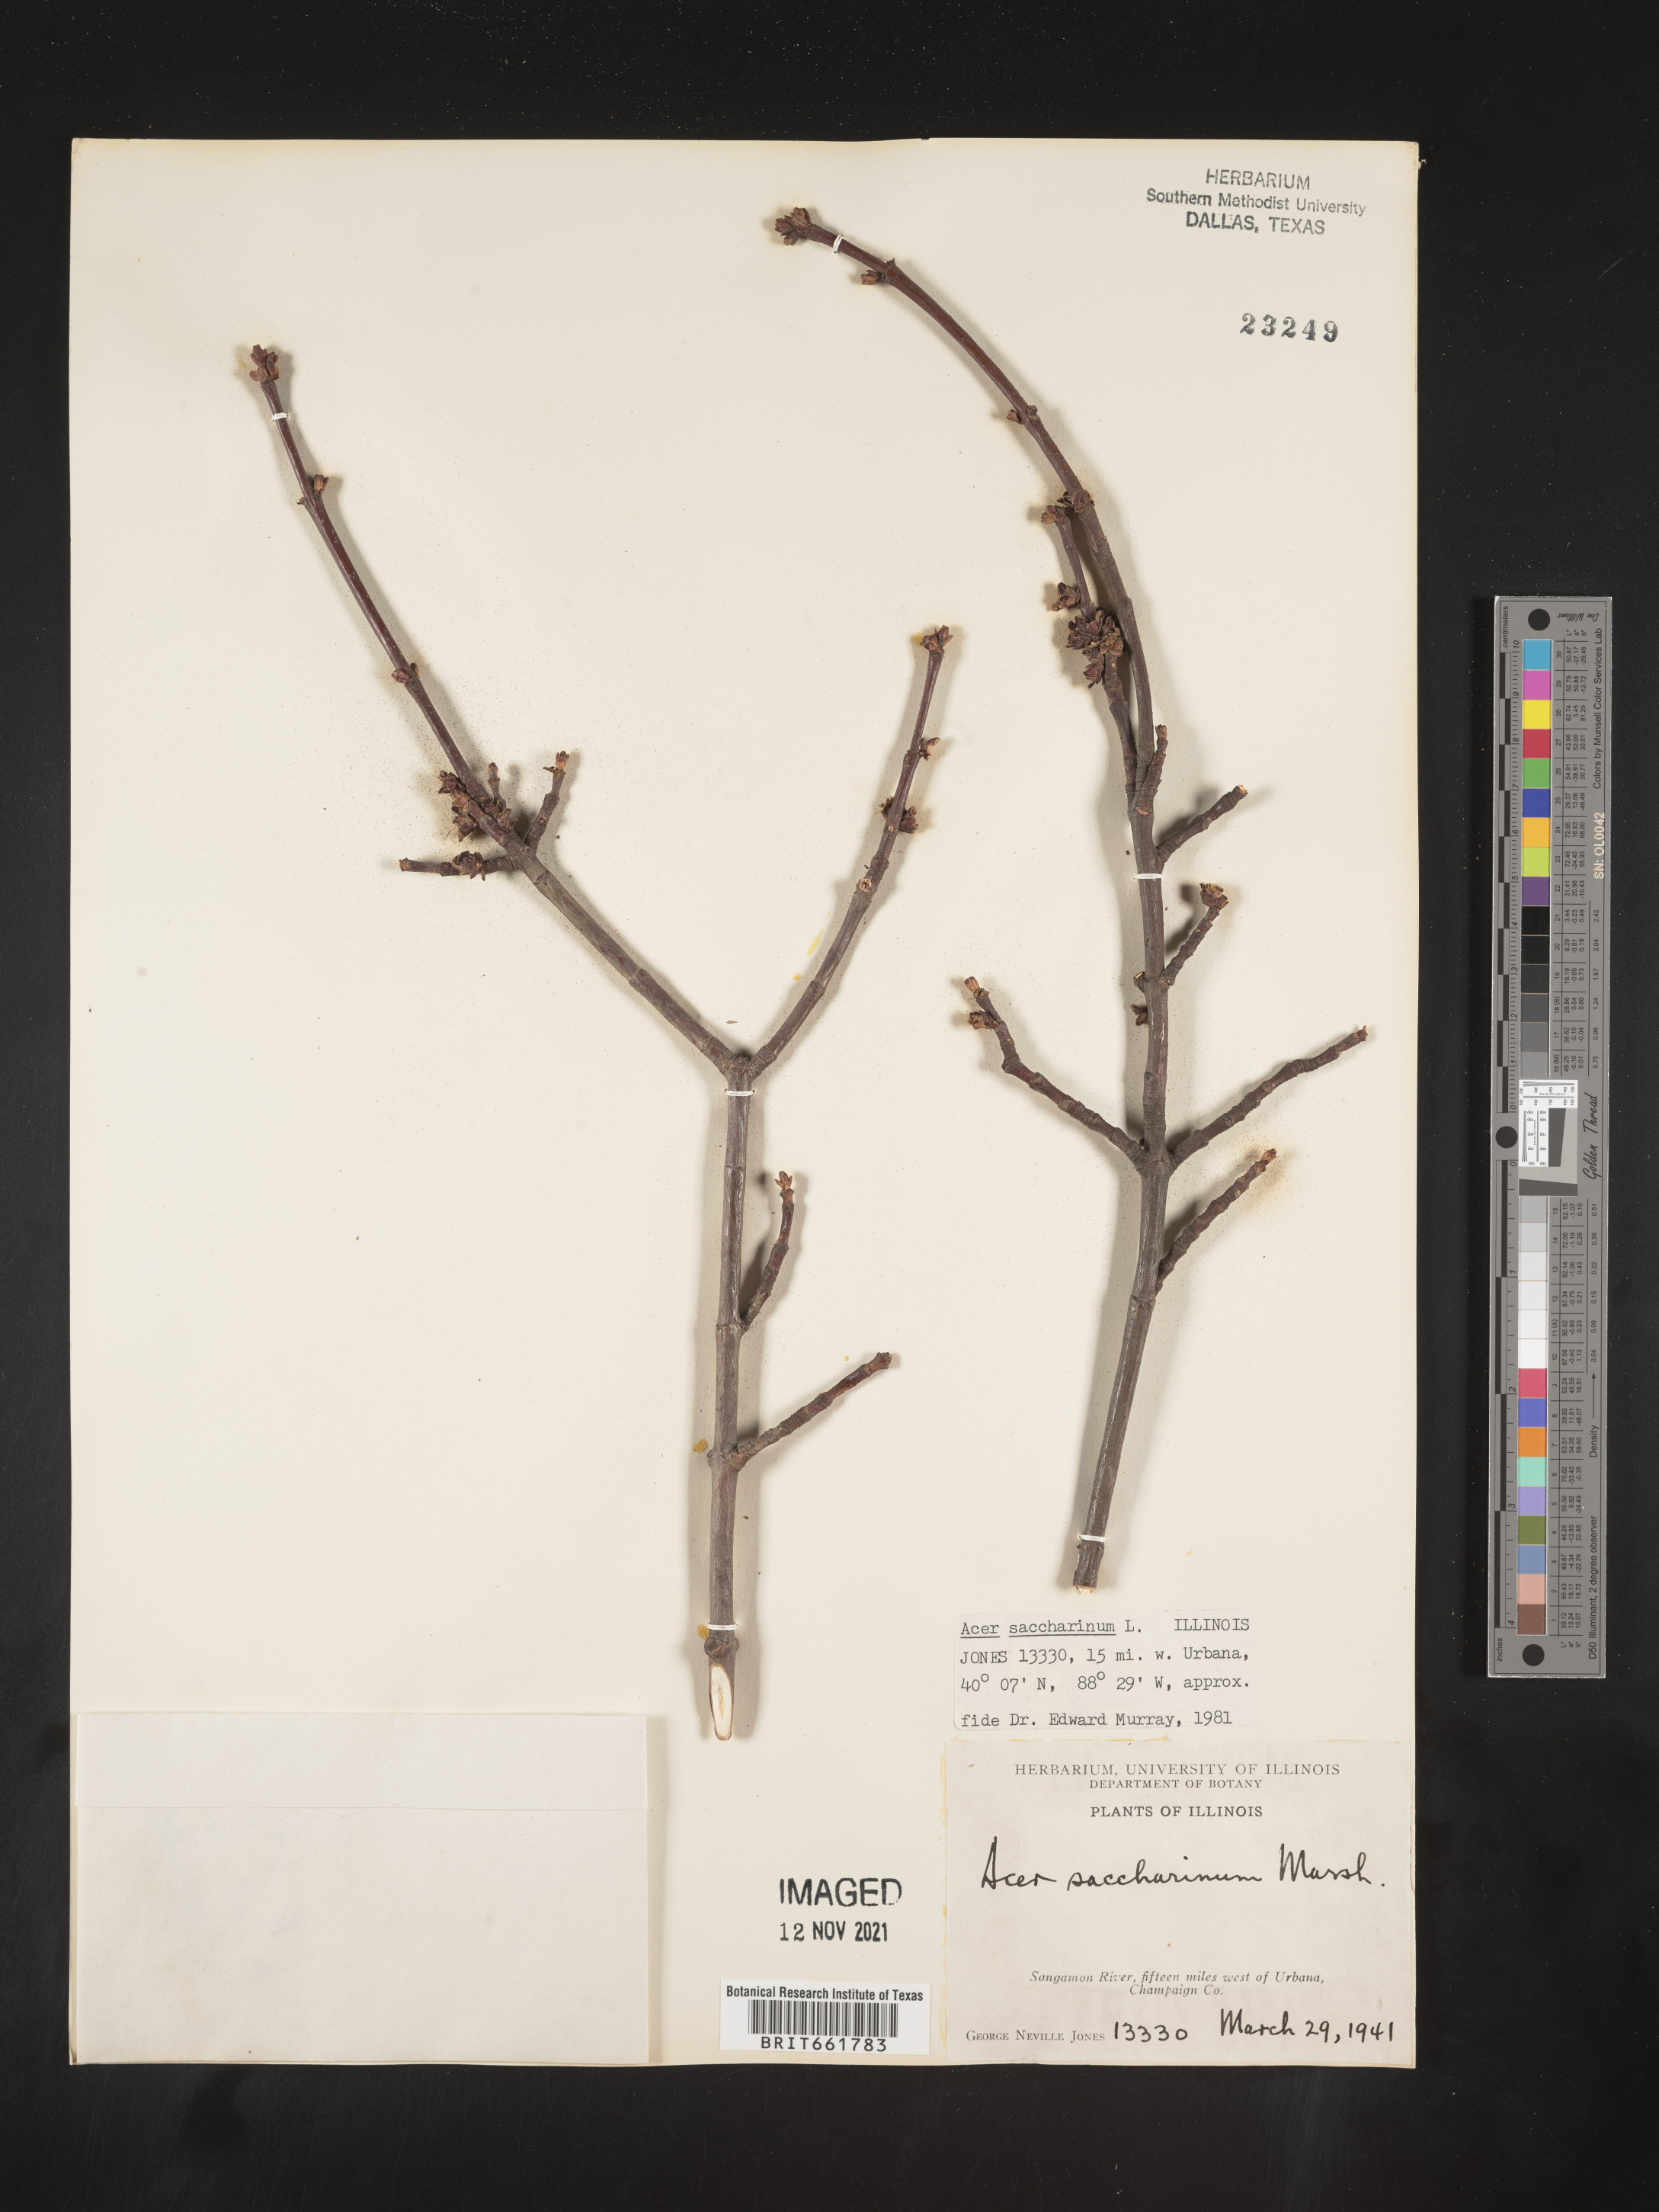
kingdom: Plantae
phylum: Tracheophyta
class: Magnoliopsida
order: Sapindales
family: Sapindaceae
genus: Acer
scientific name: Acer saccharinum
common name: Silver maple
